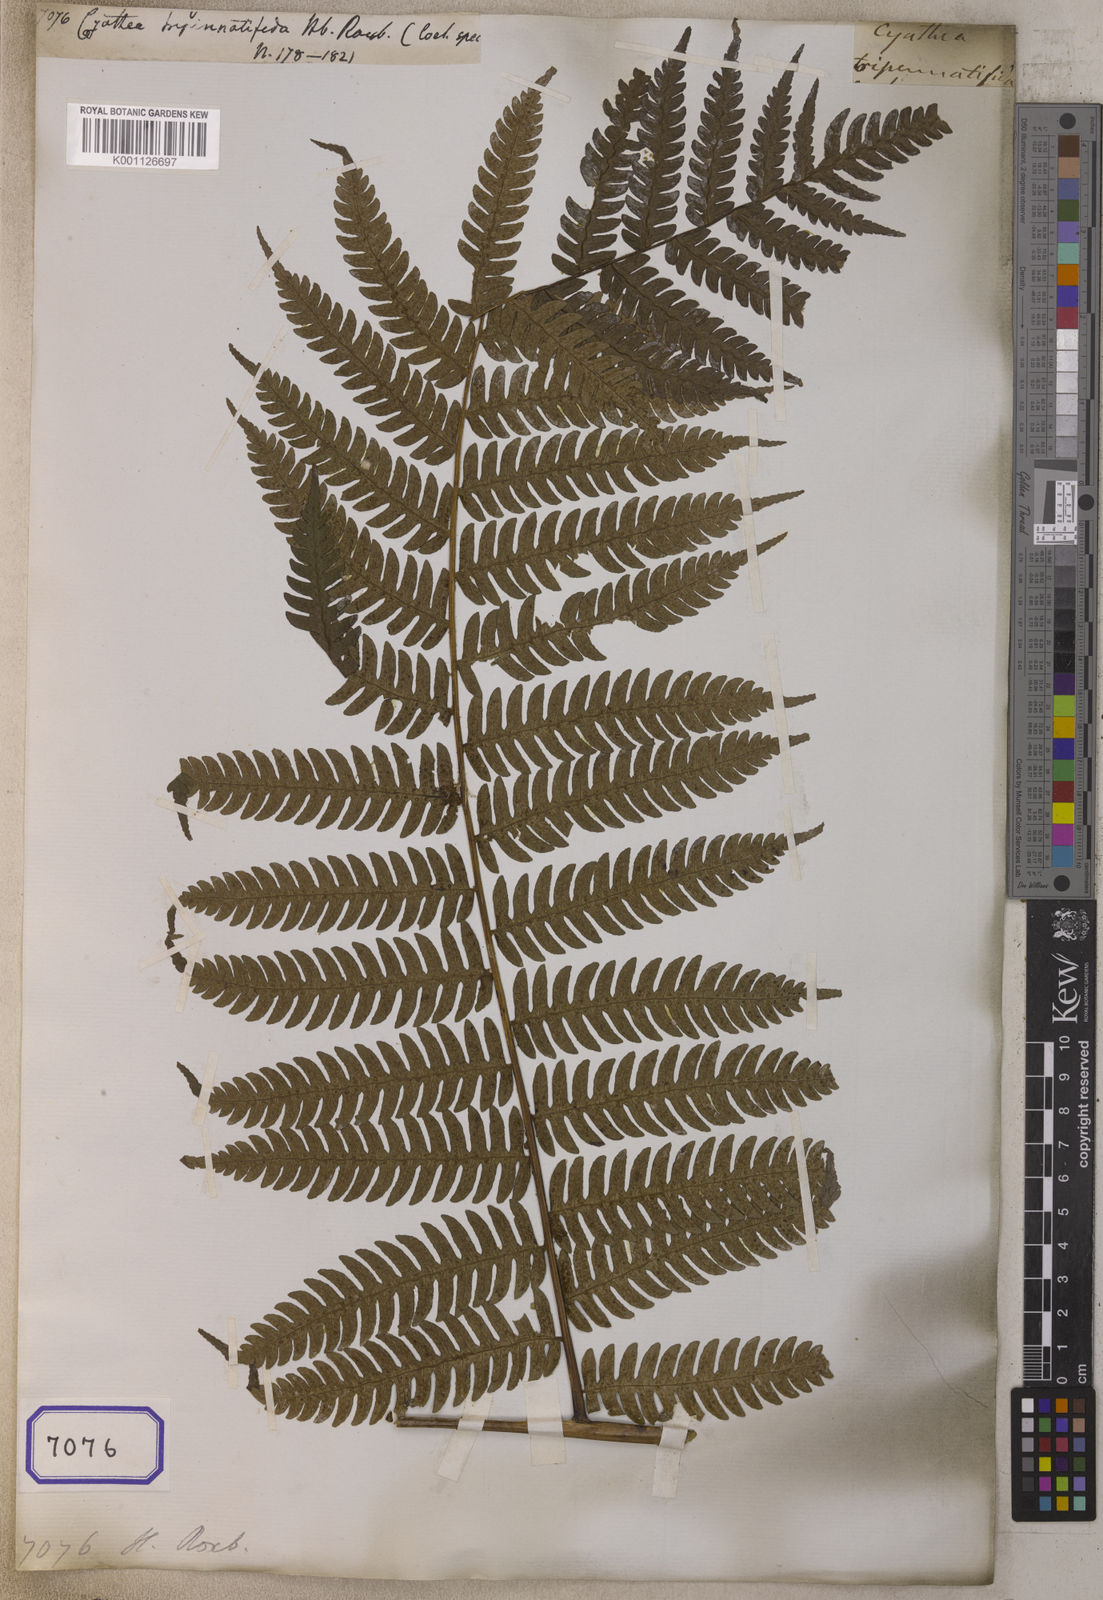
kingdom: Plantae
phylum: Tracheophyta
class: Polypodiopsida
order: Cyatheales
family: Cyatheaceae
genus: Cyathea
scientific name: Cyathea
